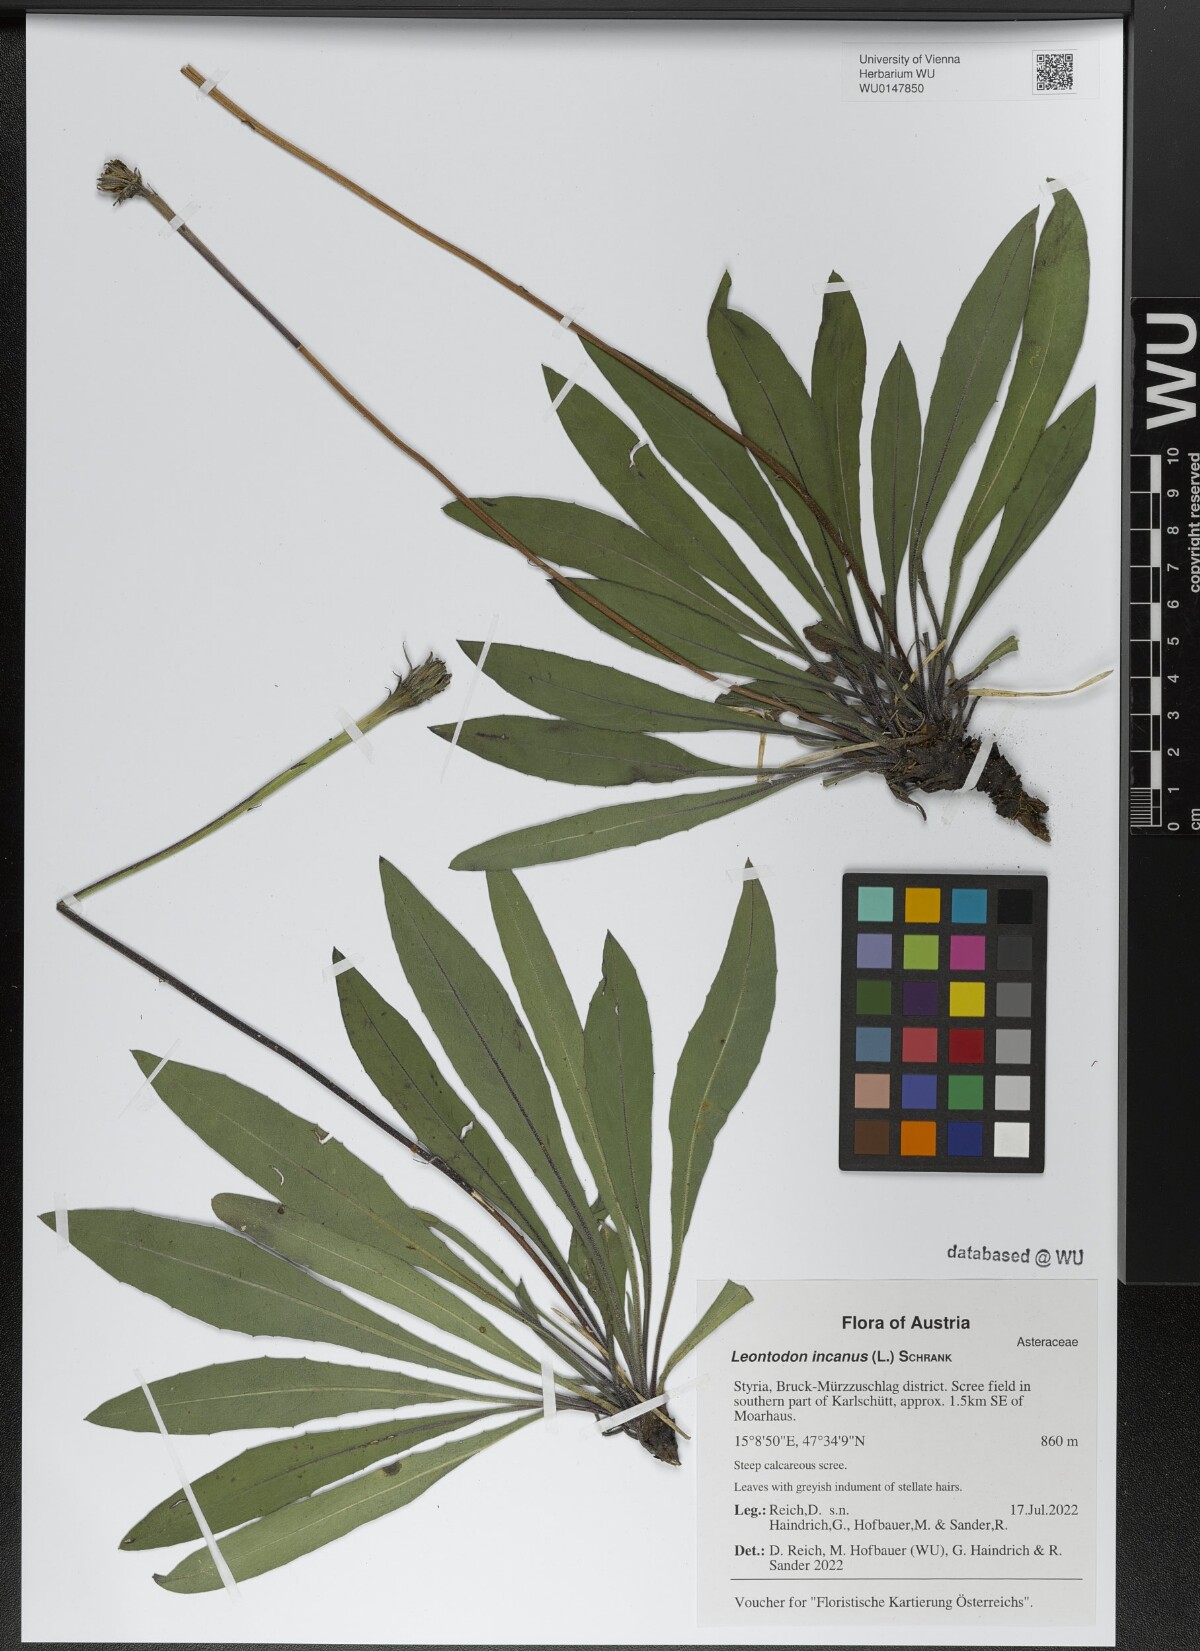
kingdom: Plantae
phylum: Tracheophyta
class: Magnoliopsida
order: Asterales
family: Asteraceae
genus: Leontodon
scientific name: Leontodon incanus
